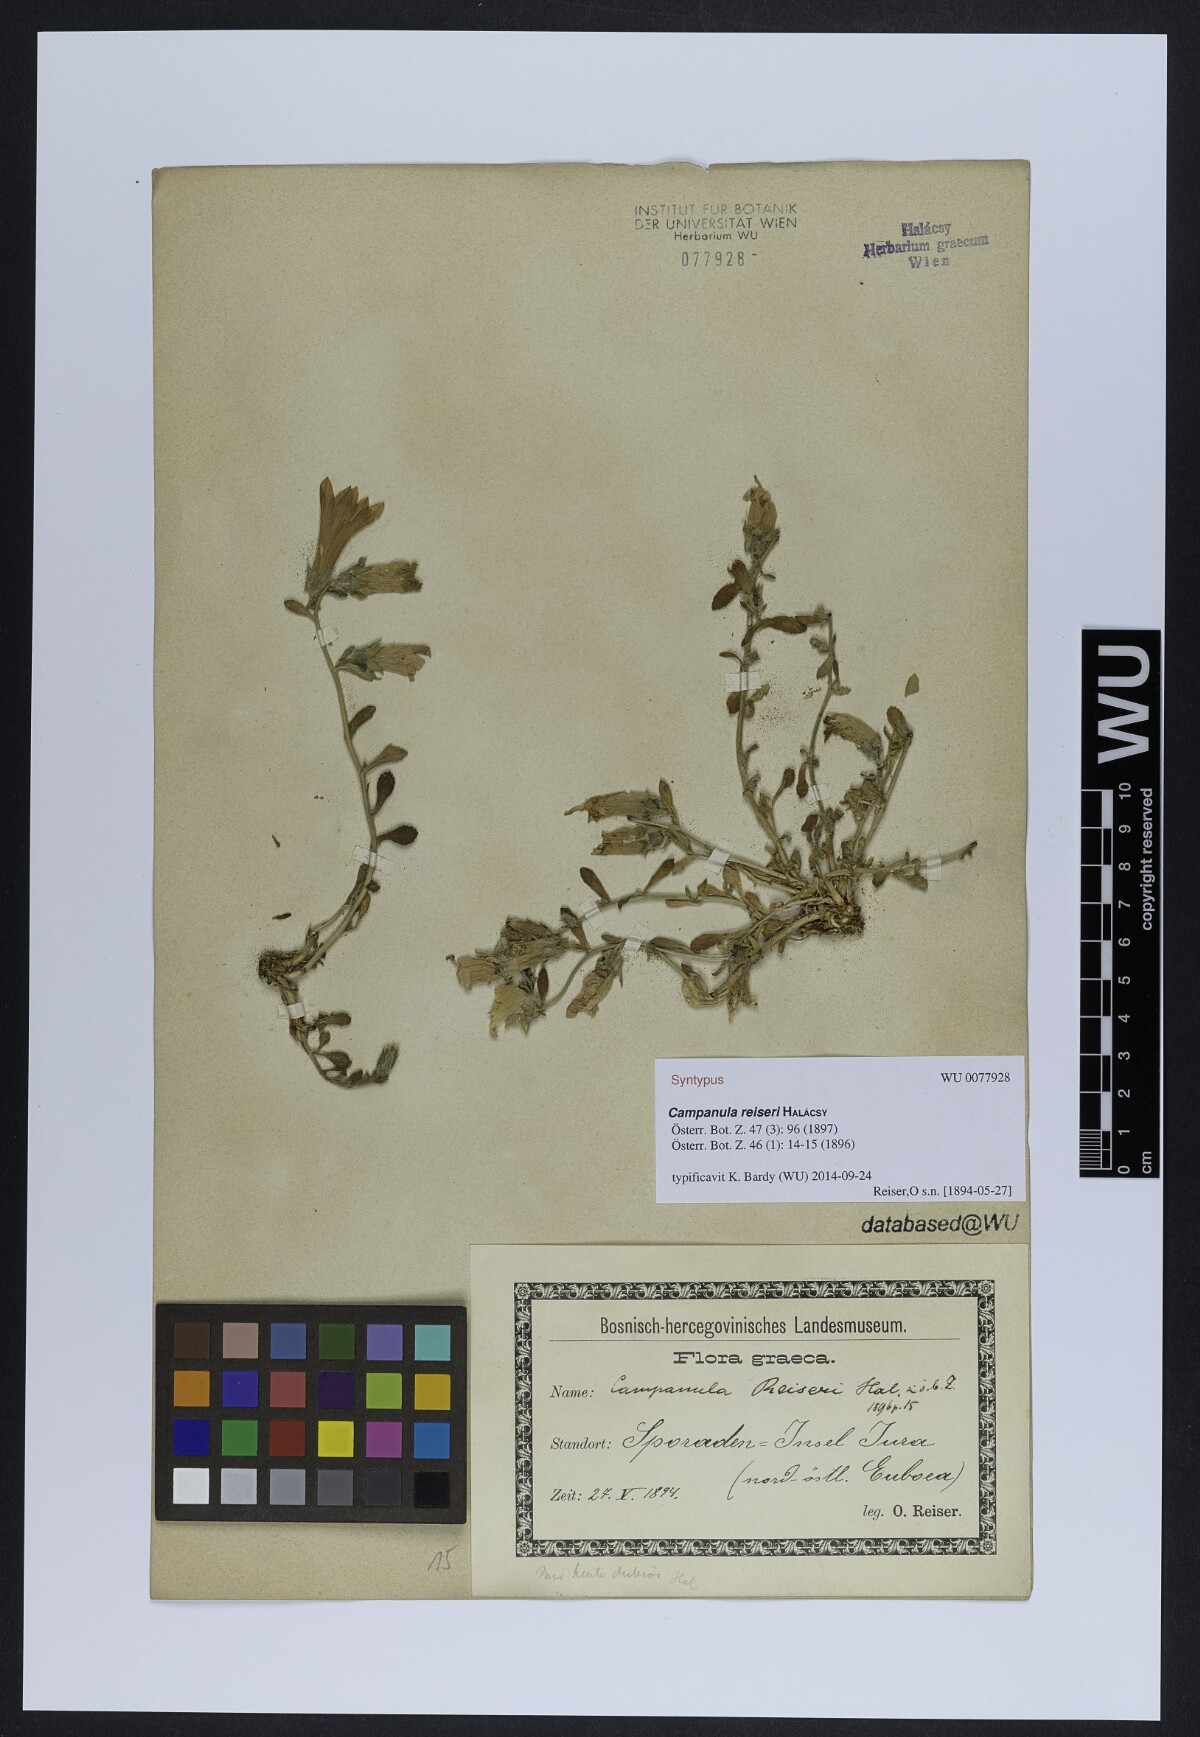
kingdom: Plantae
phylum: Tracheophyta
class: Magnoliopsida
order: Asterales
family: Campanulaceae
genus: Campanula
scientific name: Campanula reiseri
